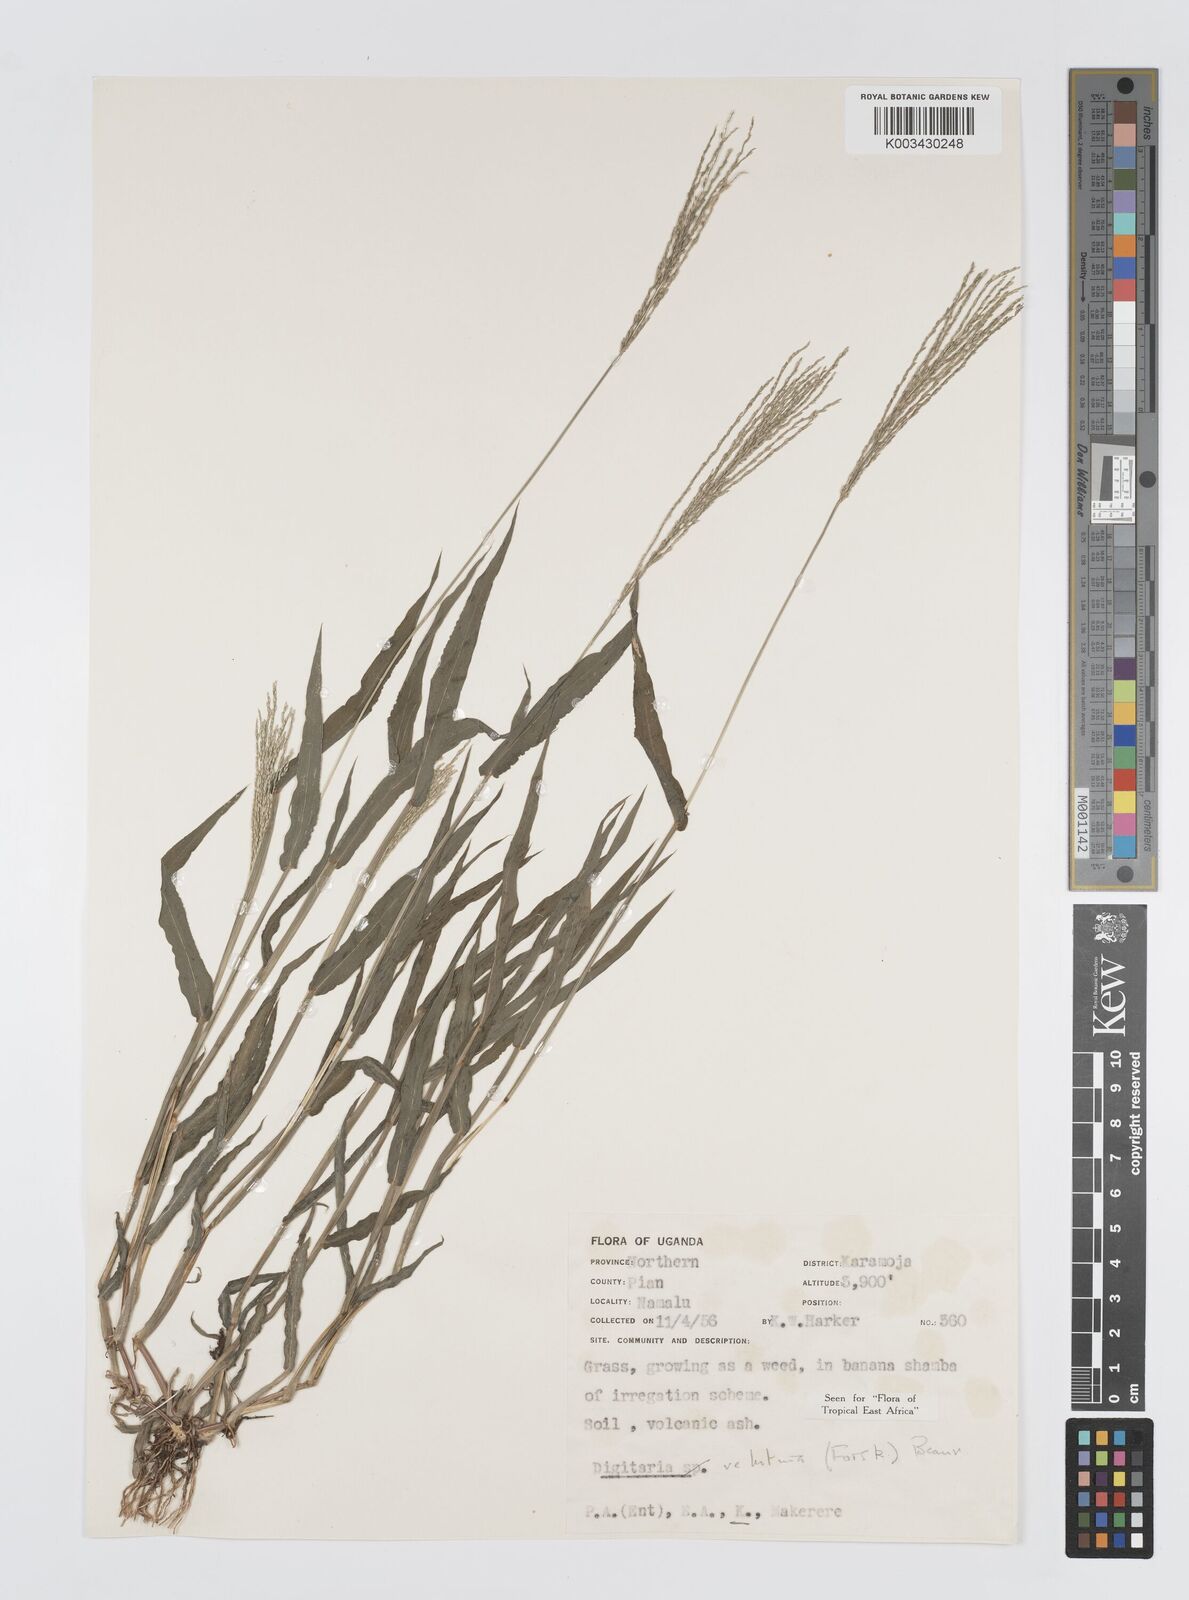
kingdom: Plantae
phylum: Tracheophyta
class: Liliopsida
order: Poales
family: Poaceae
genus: Digitaria
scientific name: Digitaria velutina
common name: Long-plume finger grass
